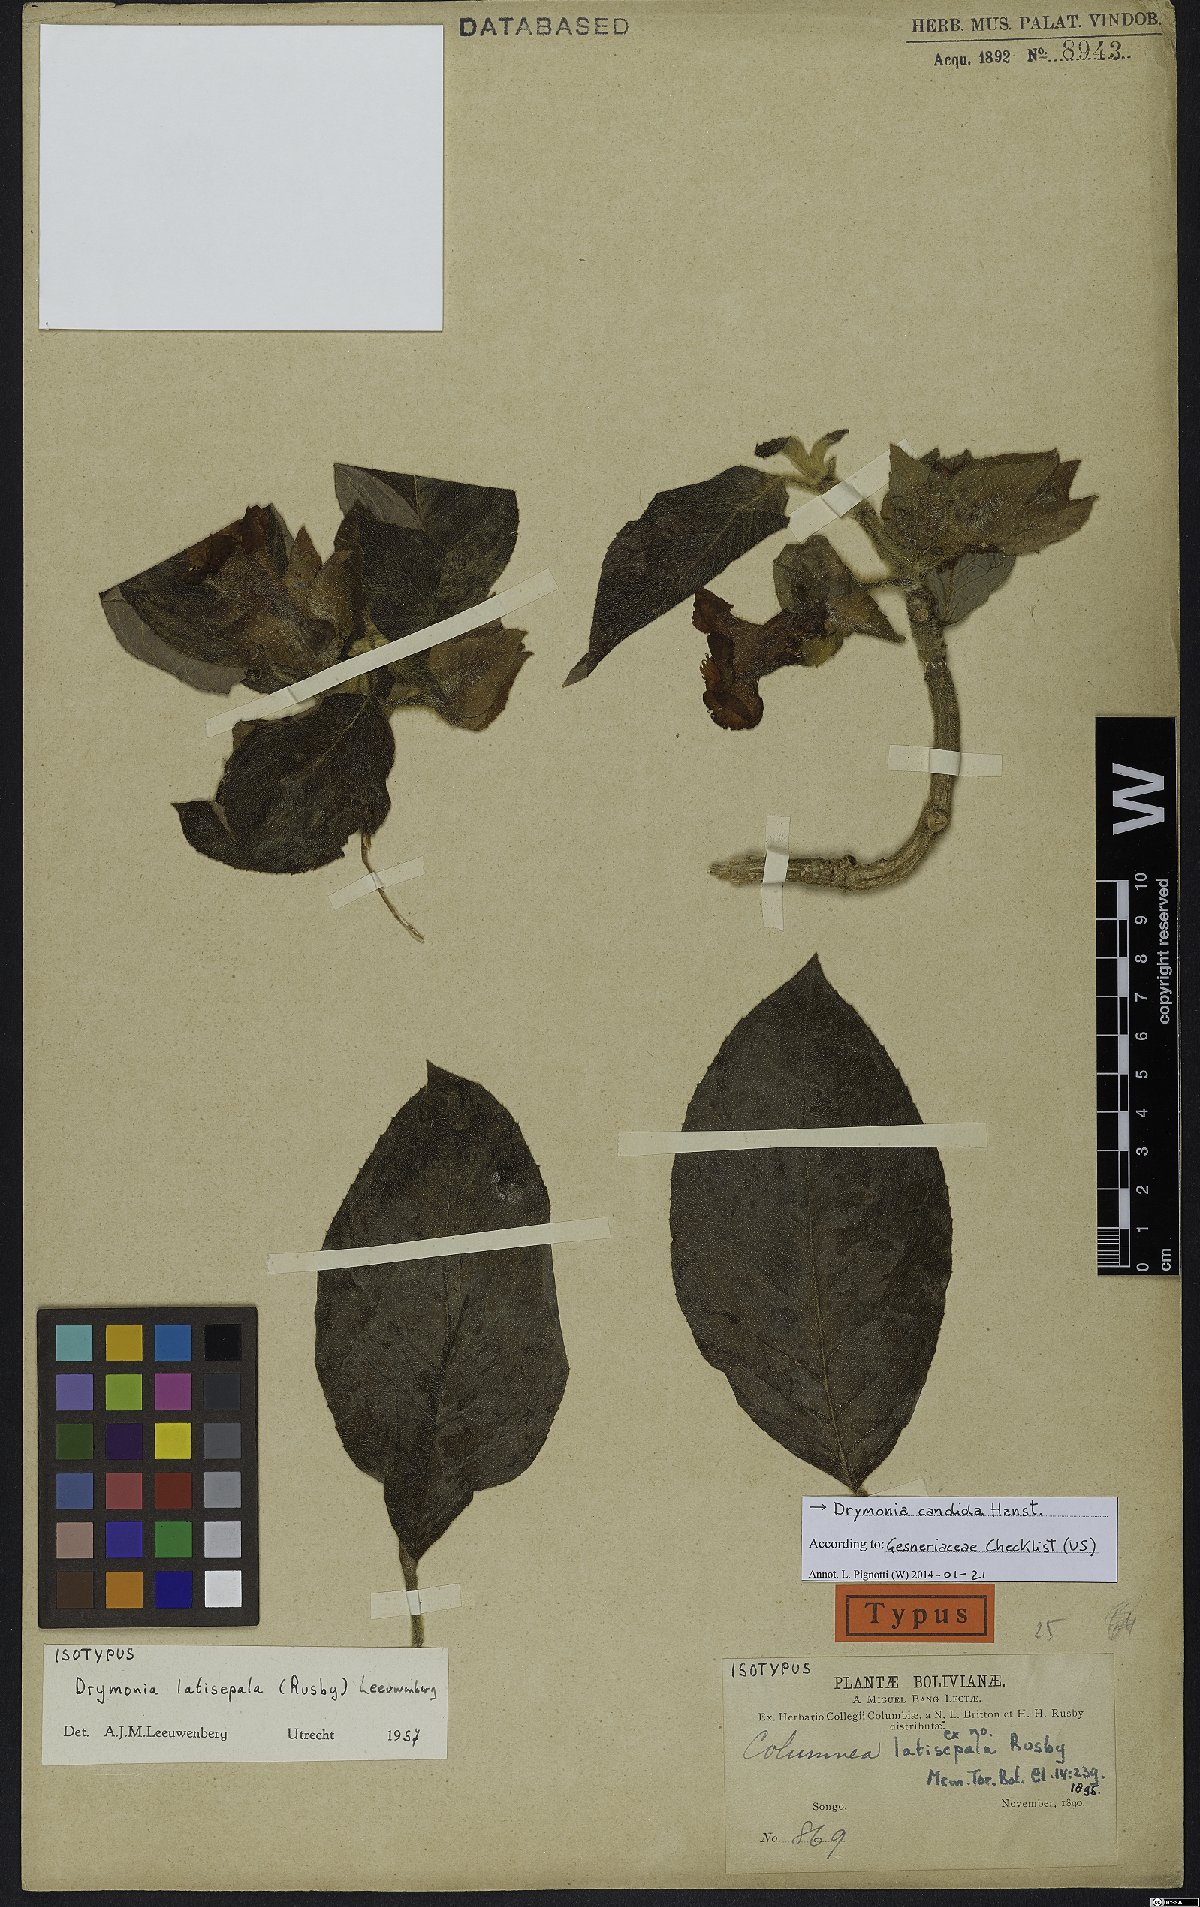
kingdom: Plantae
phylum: Tracheophyta
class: Magnoliopsida
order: Lamiales
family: Gesneriaceae
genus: Drymonia
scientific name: Drymonia candida
